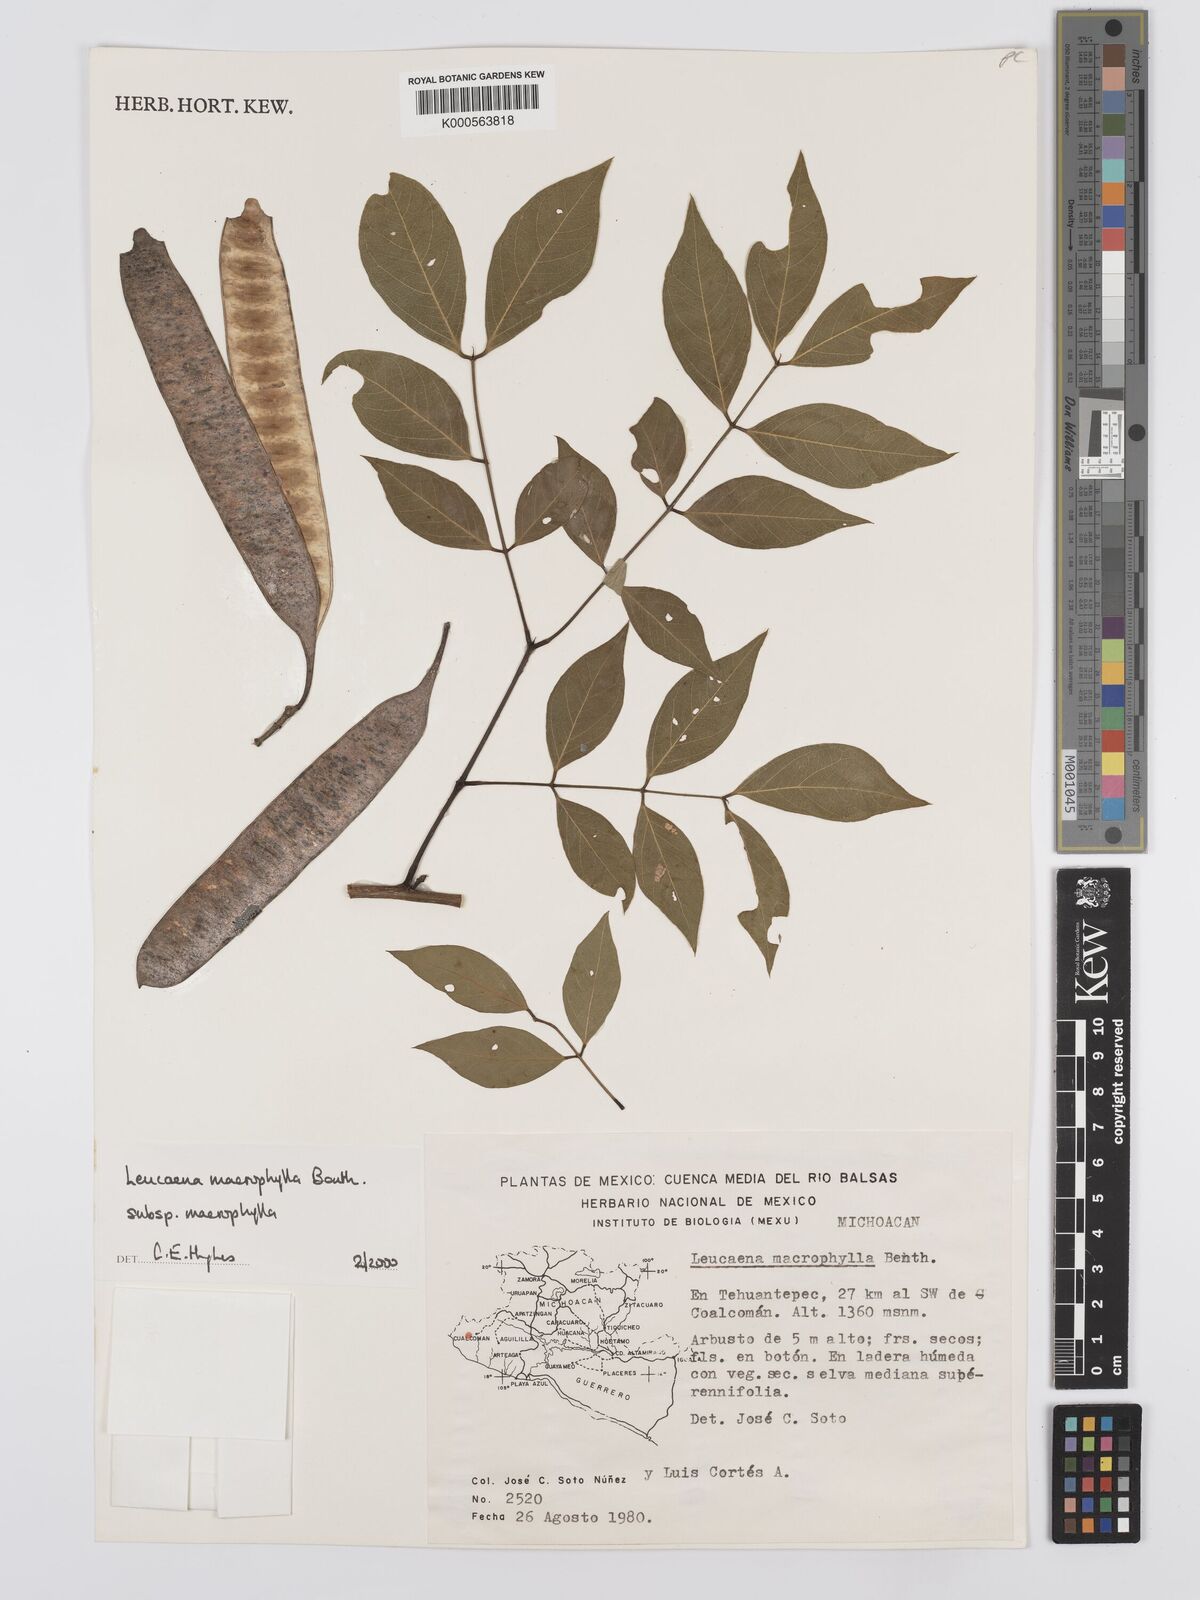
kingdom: Plantae
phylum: Tracheophyta
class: Magnoliopsida
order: Fabales
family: Fabaceae
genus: Leucaena
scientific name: Leucaena macrophylla
